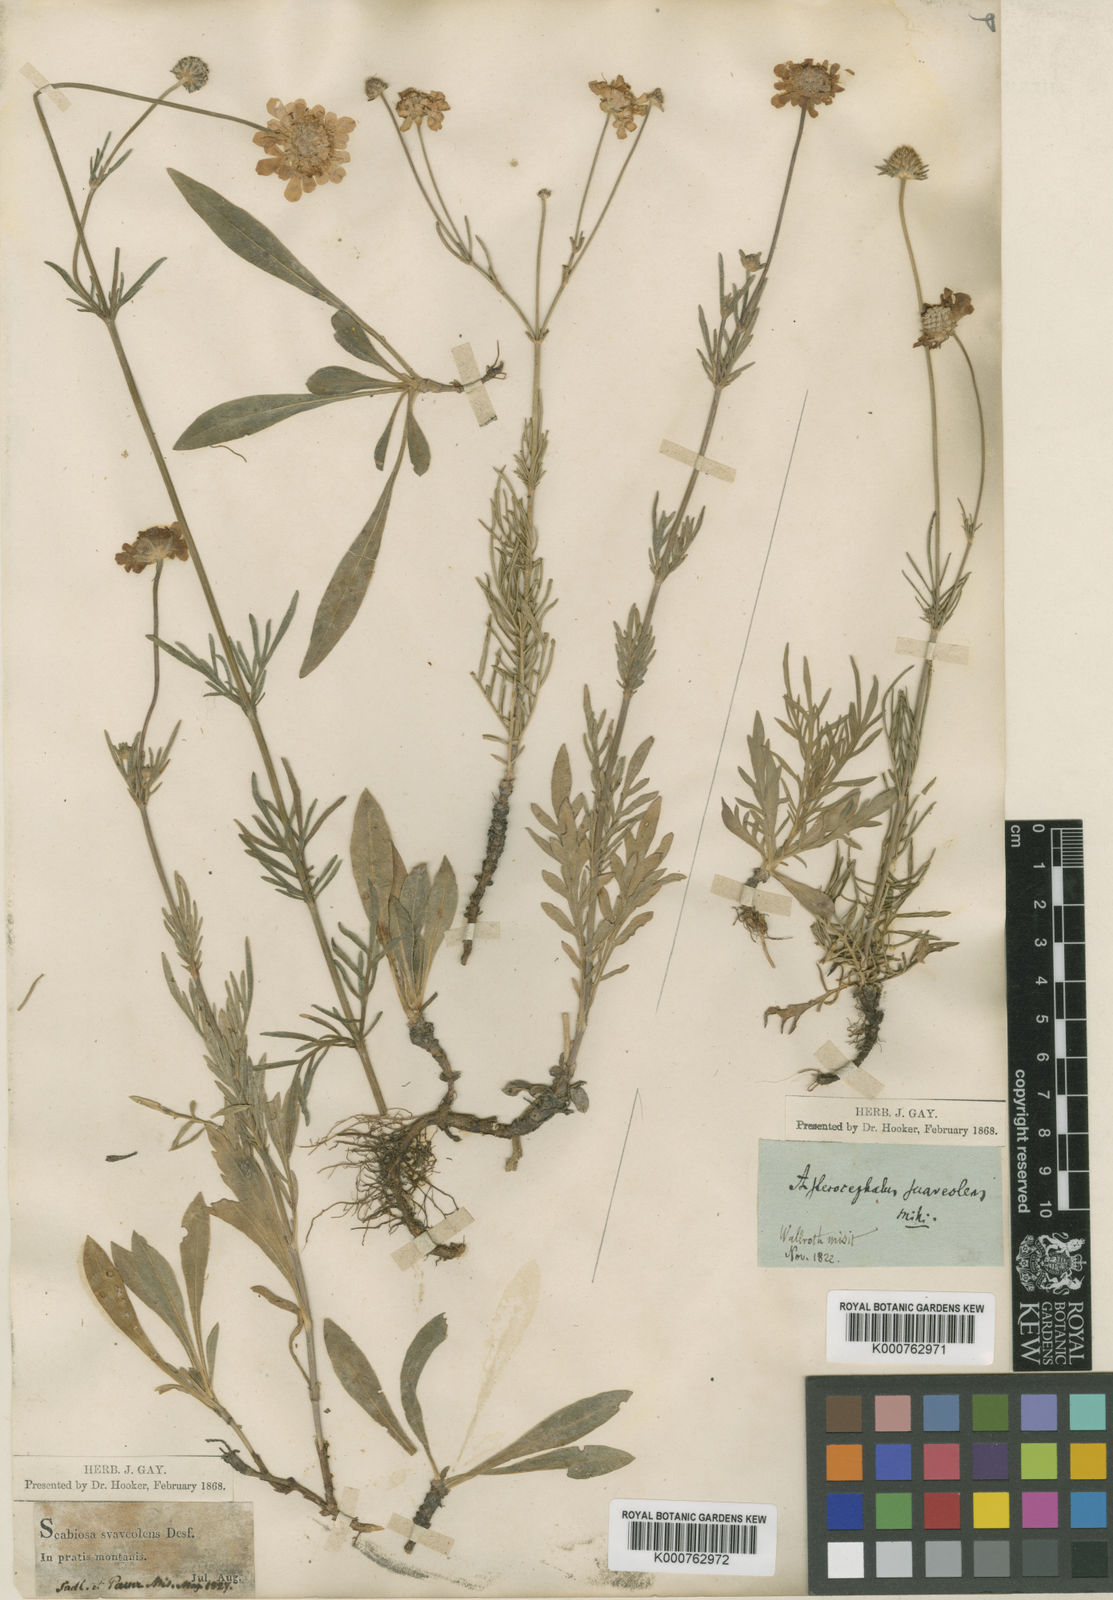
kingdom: Plantae
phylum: Tracheophyta
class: Magnoliopsida
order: Dipsacales
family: Caprifoliaceae
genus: Scabiosa
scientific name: Scabiosa canescens
